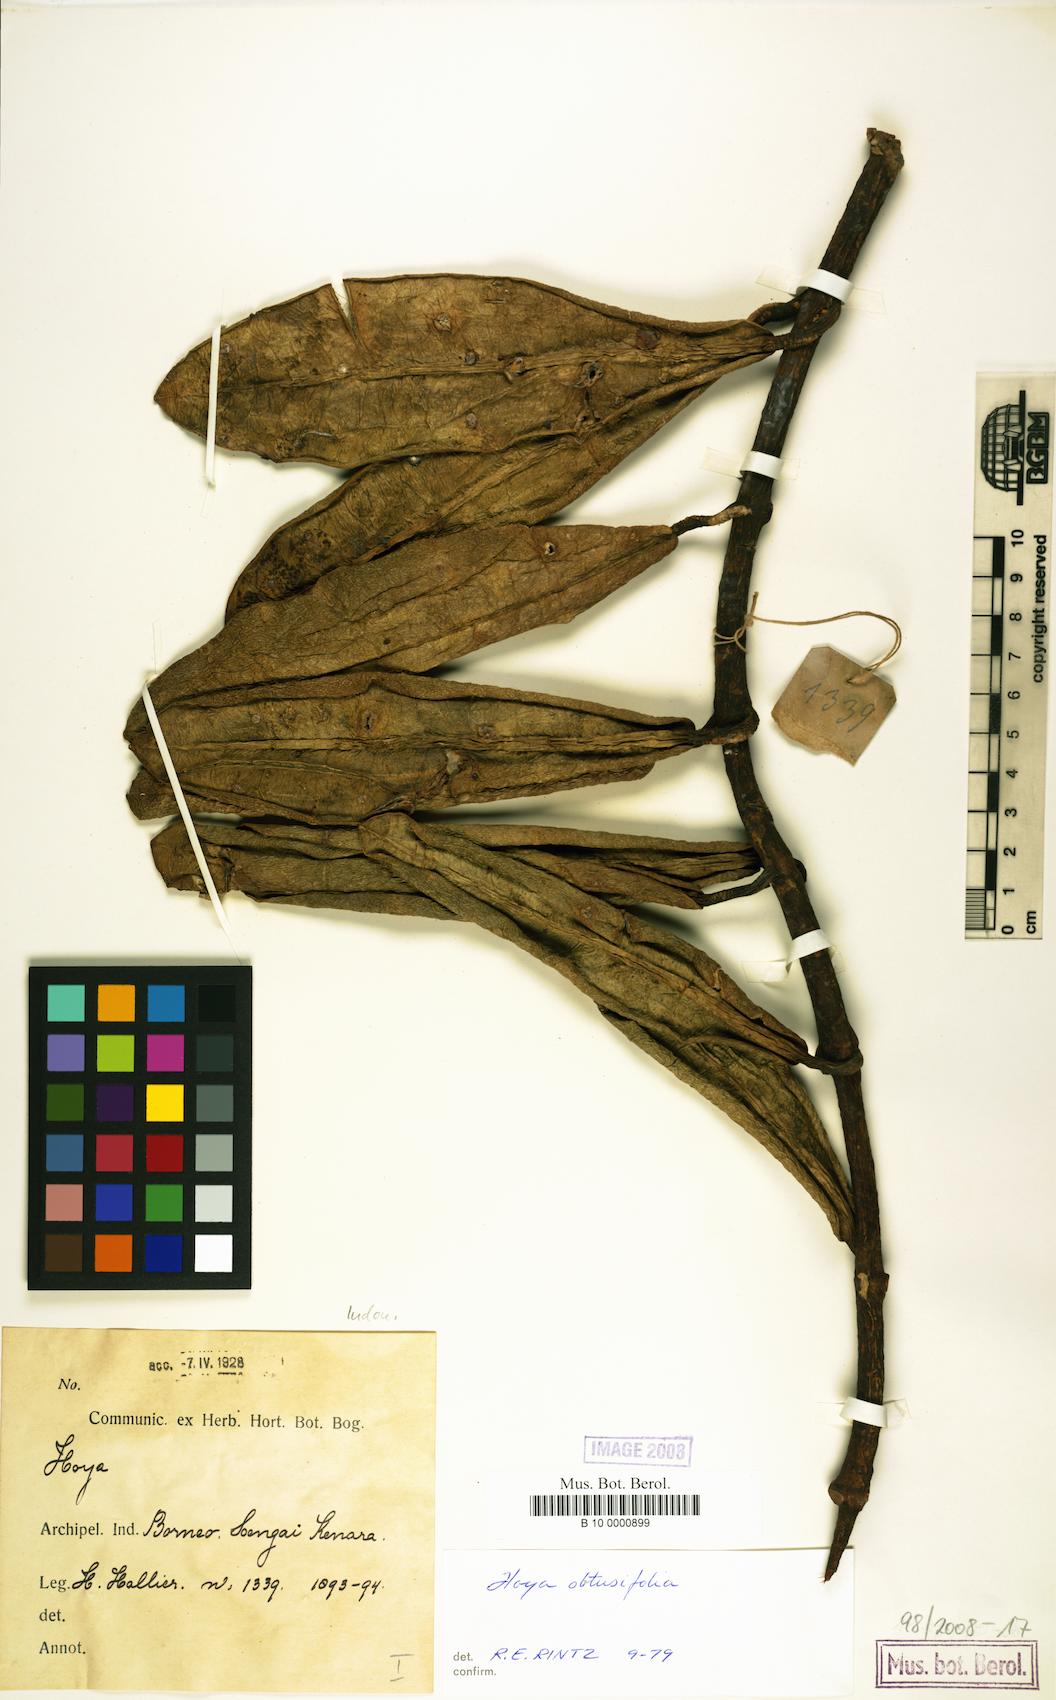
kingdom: Plantae
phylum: Tracheophyta
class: Magnoliopsida
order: Gentianales
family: Apocynaceae
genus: Hoya
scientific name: Hoya obtusifolia
